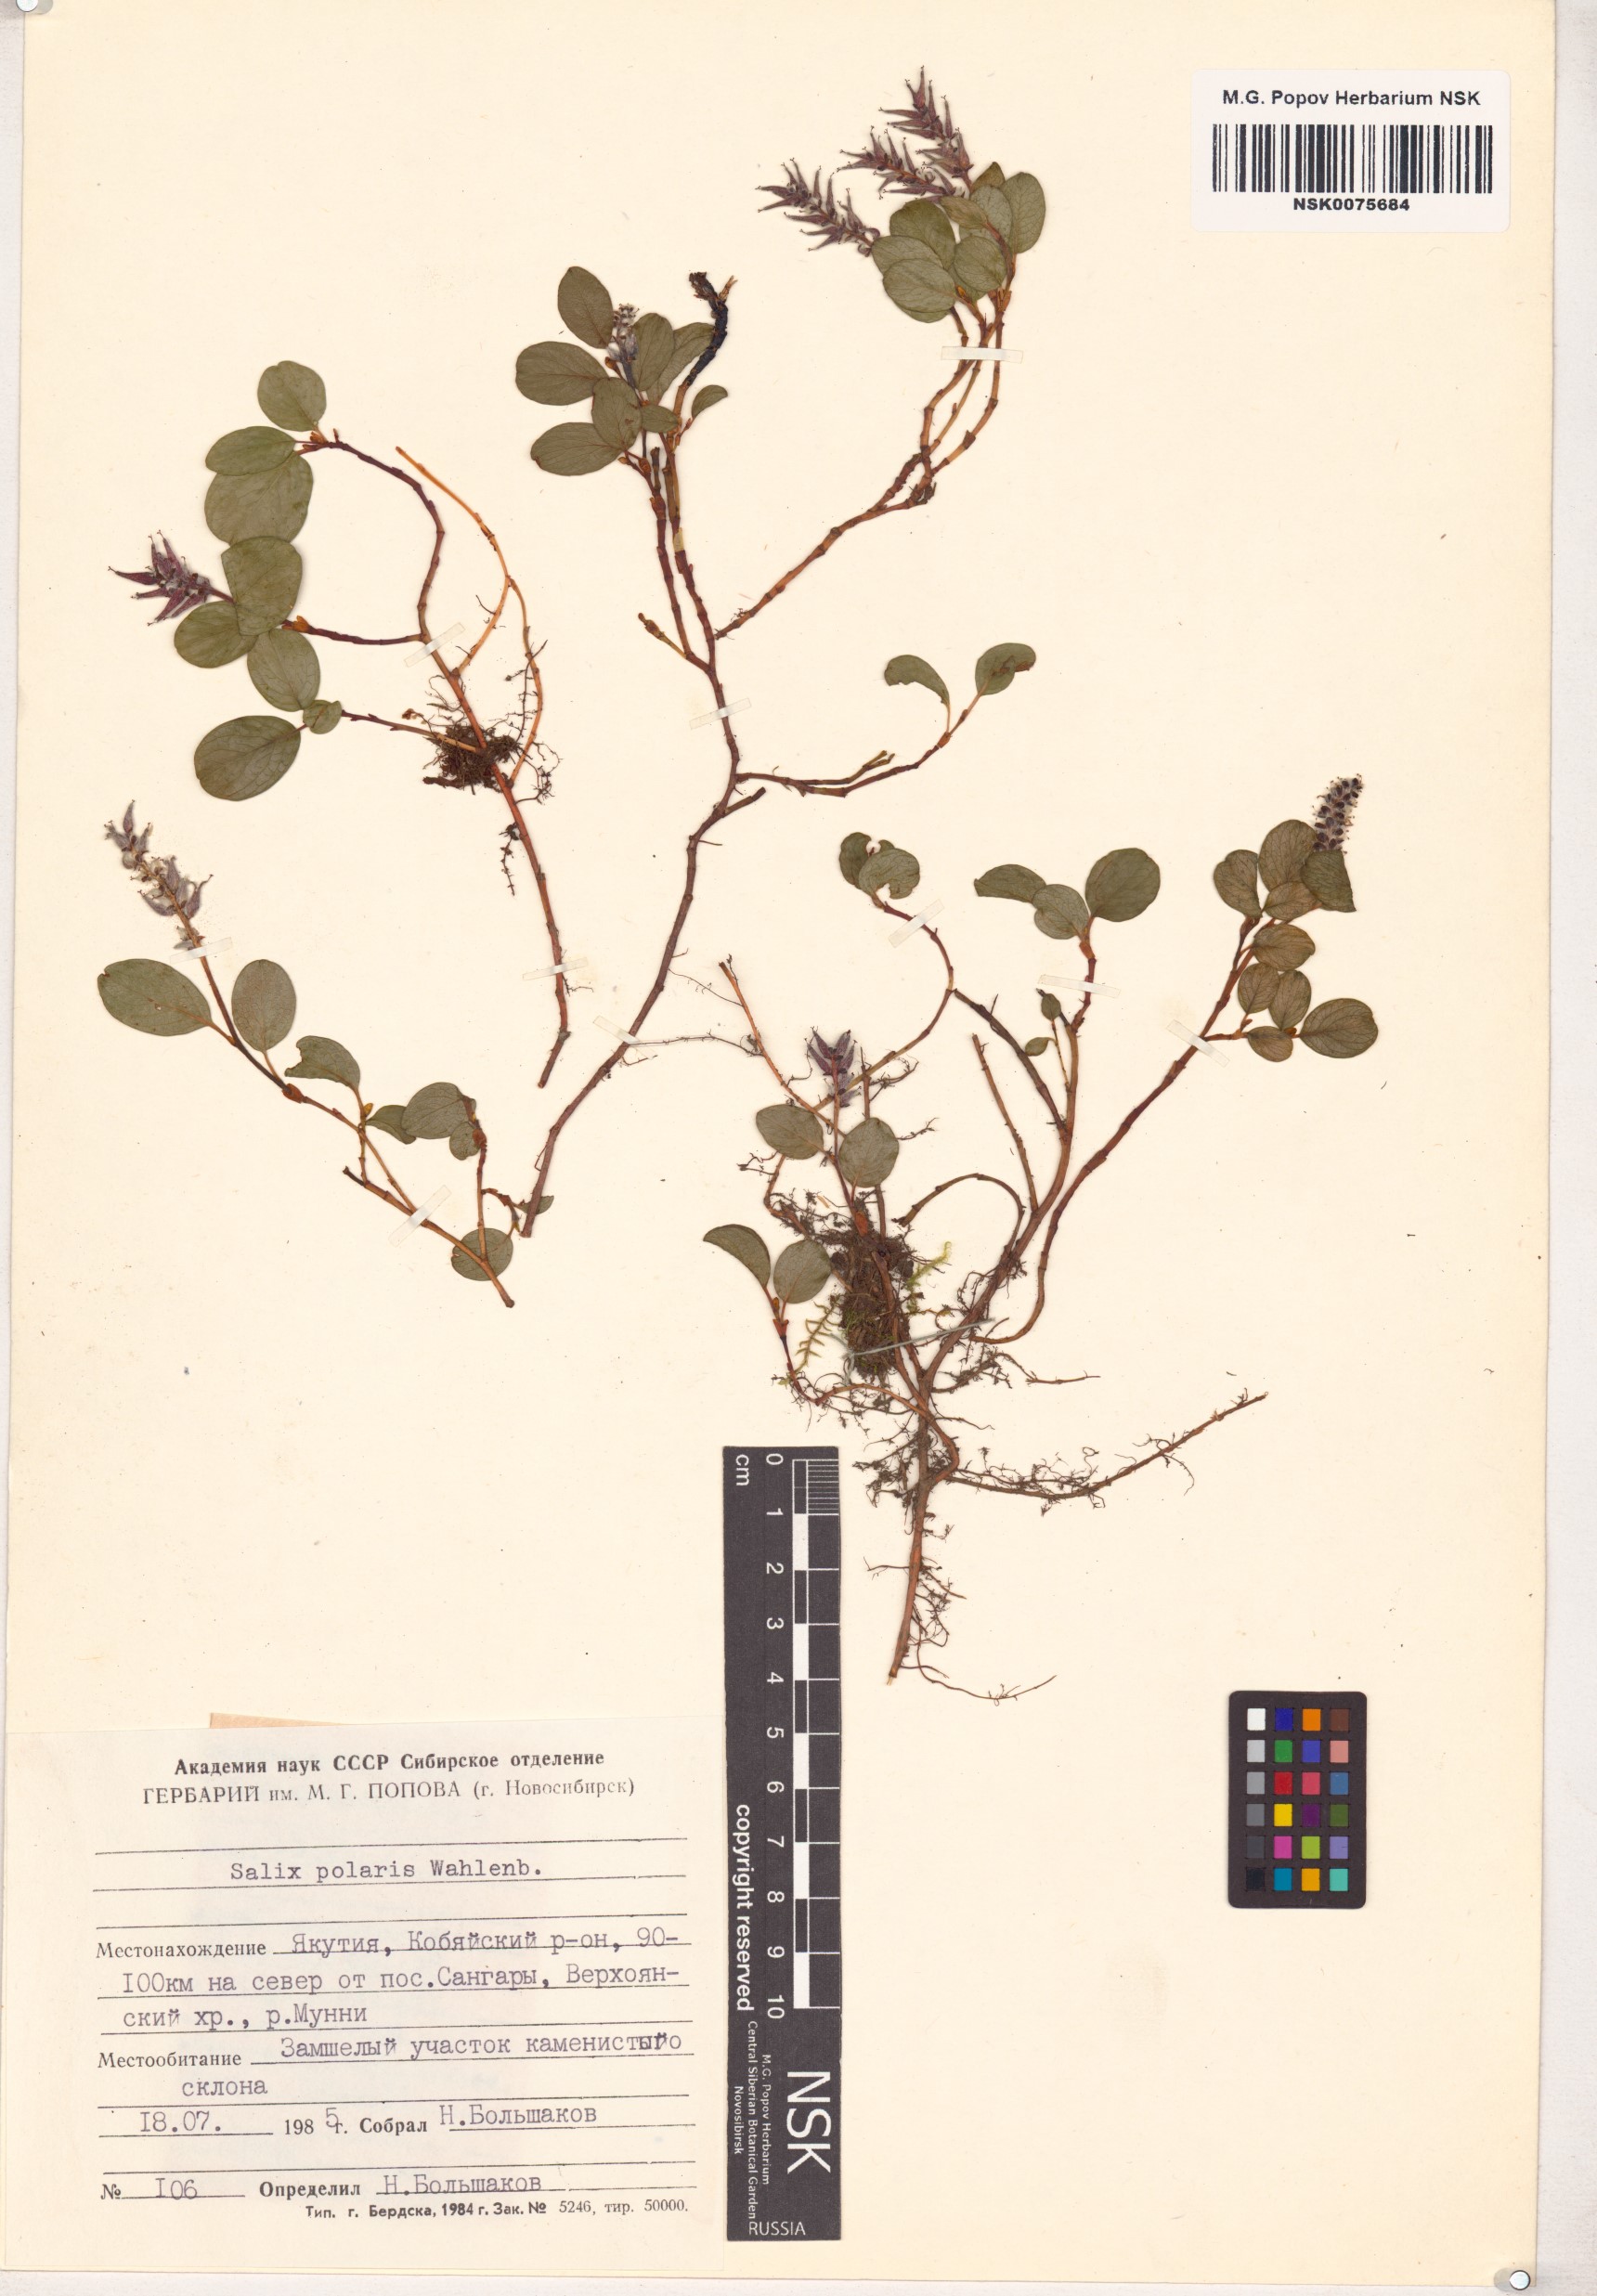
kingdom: Plantae
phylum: Tracheophyta
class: Magnoliopsida
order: Malpighiales
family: Salicaceae
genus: Salix
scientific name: Salix polaris
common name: Polar willow
